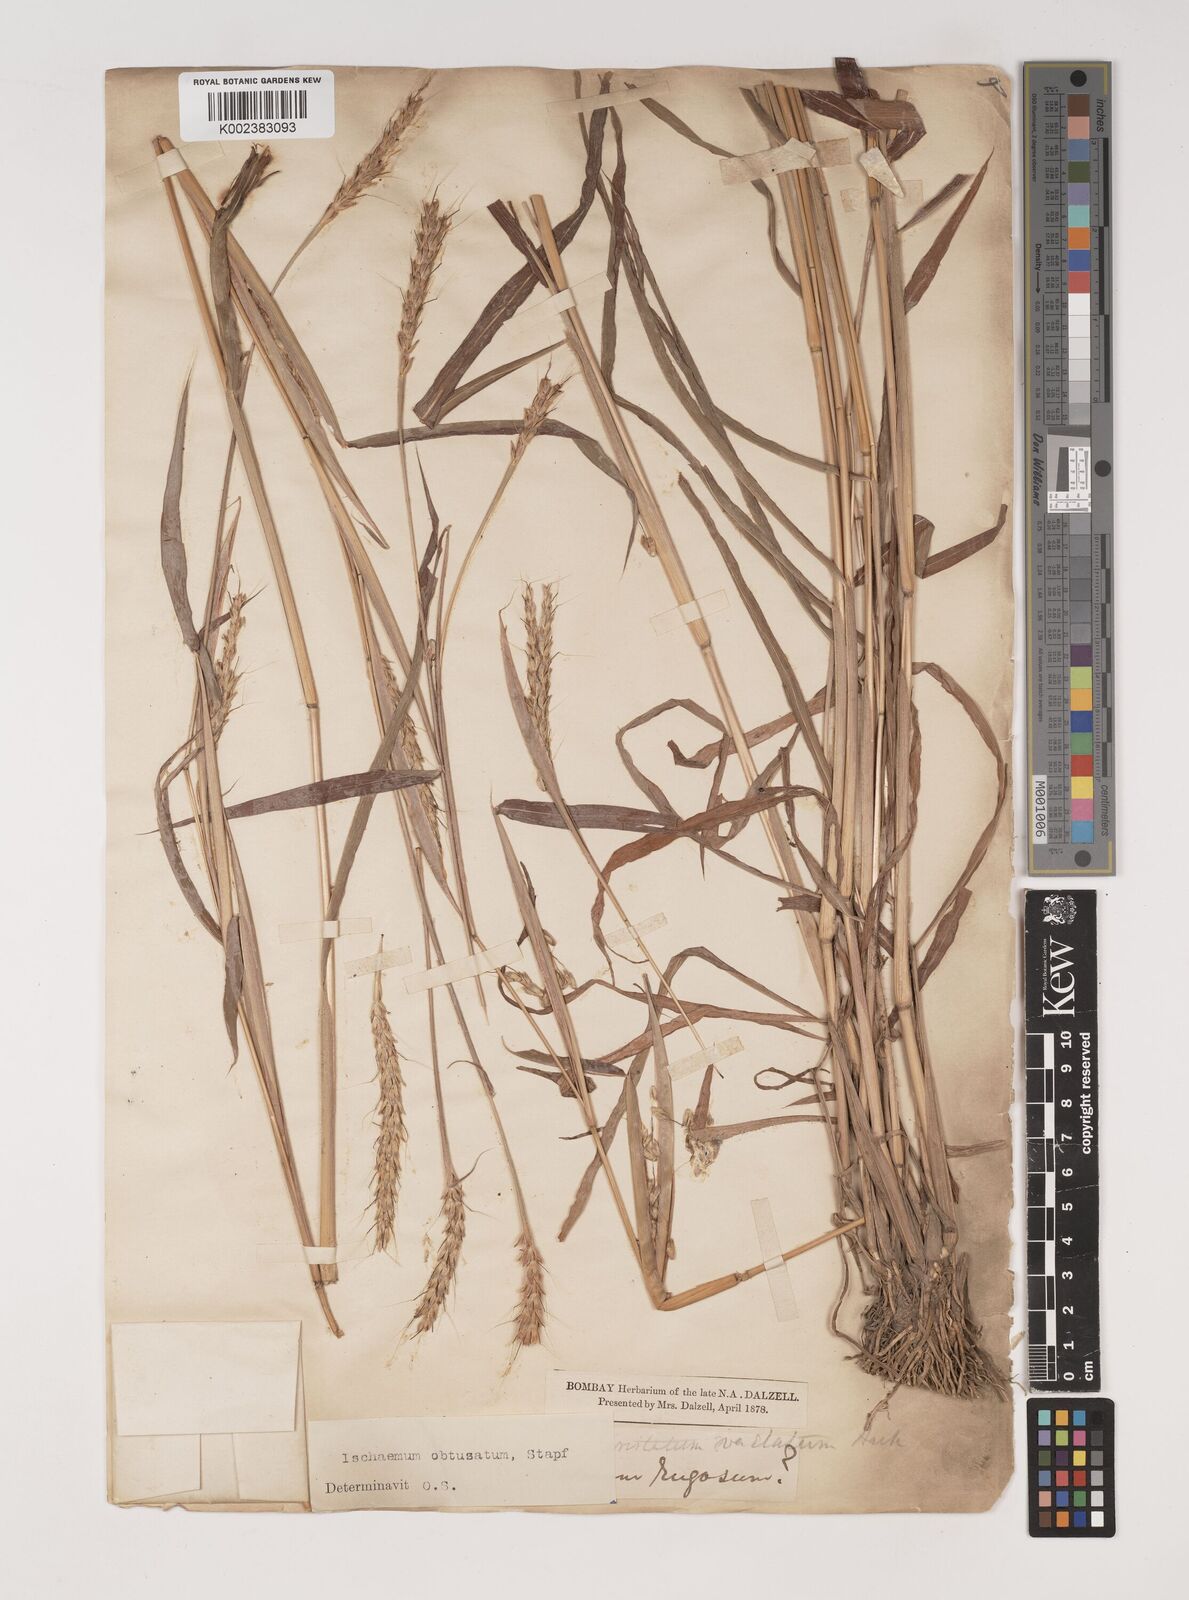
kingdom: Plantae
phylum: Tracheophyta
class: Liliopsida
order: Poales
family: Poaceae
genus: Ischaemum
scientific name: Ischaemum molle
